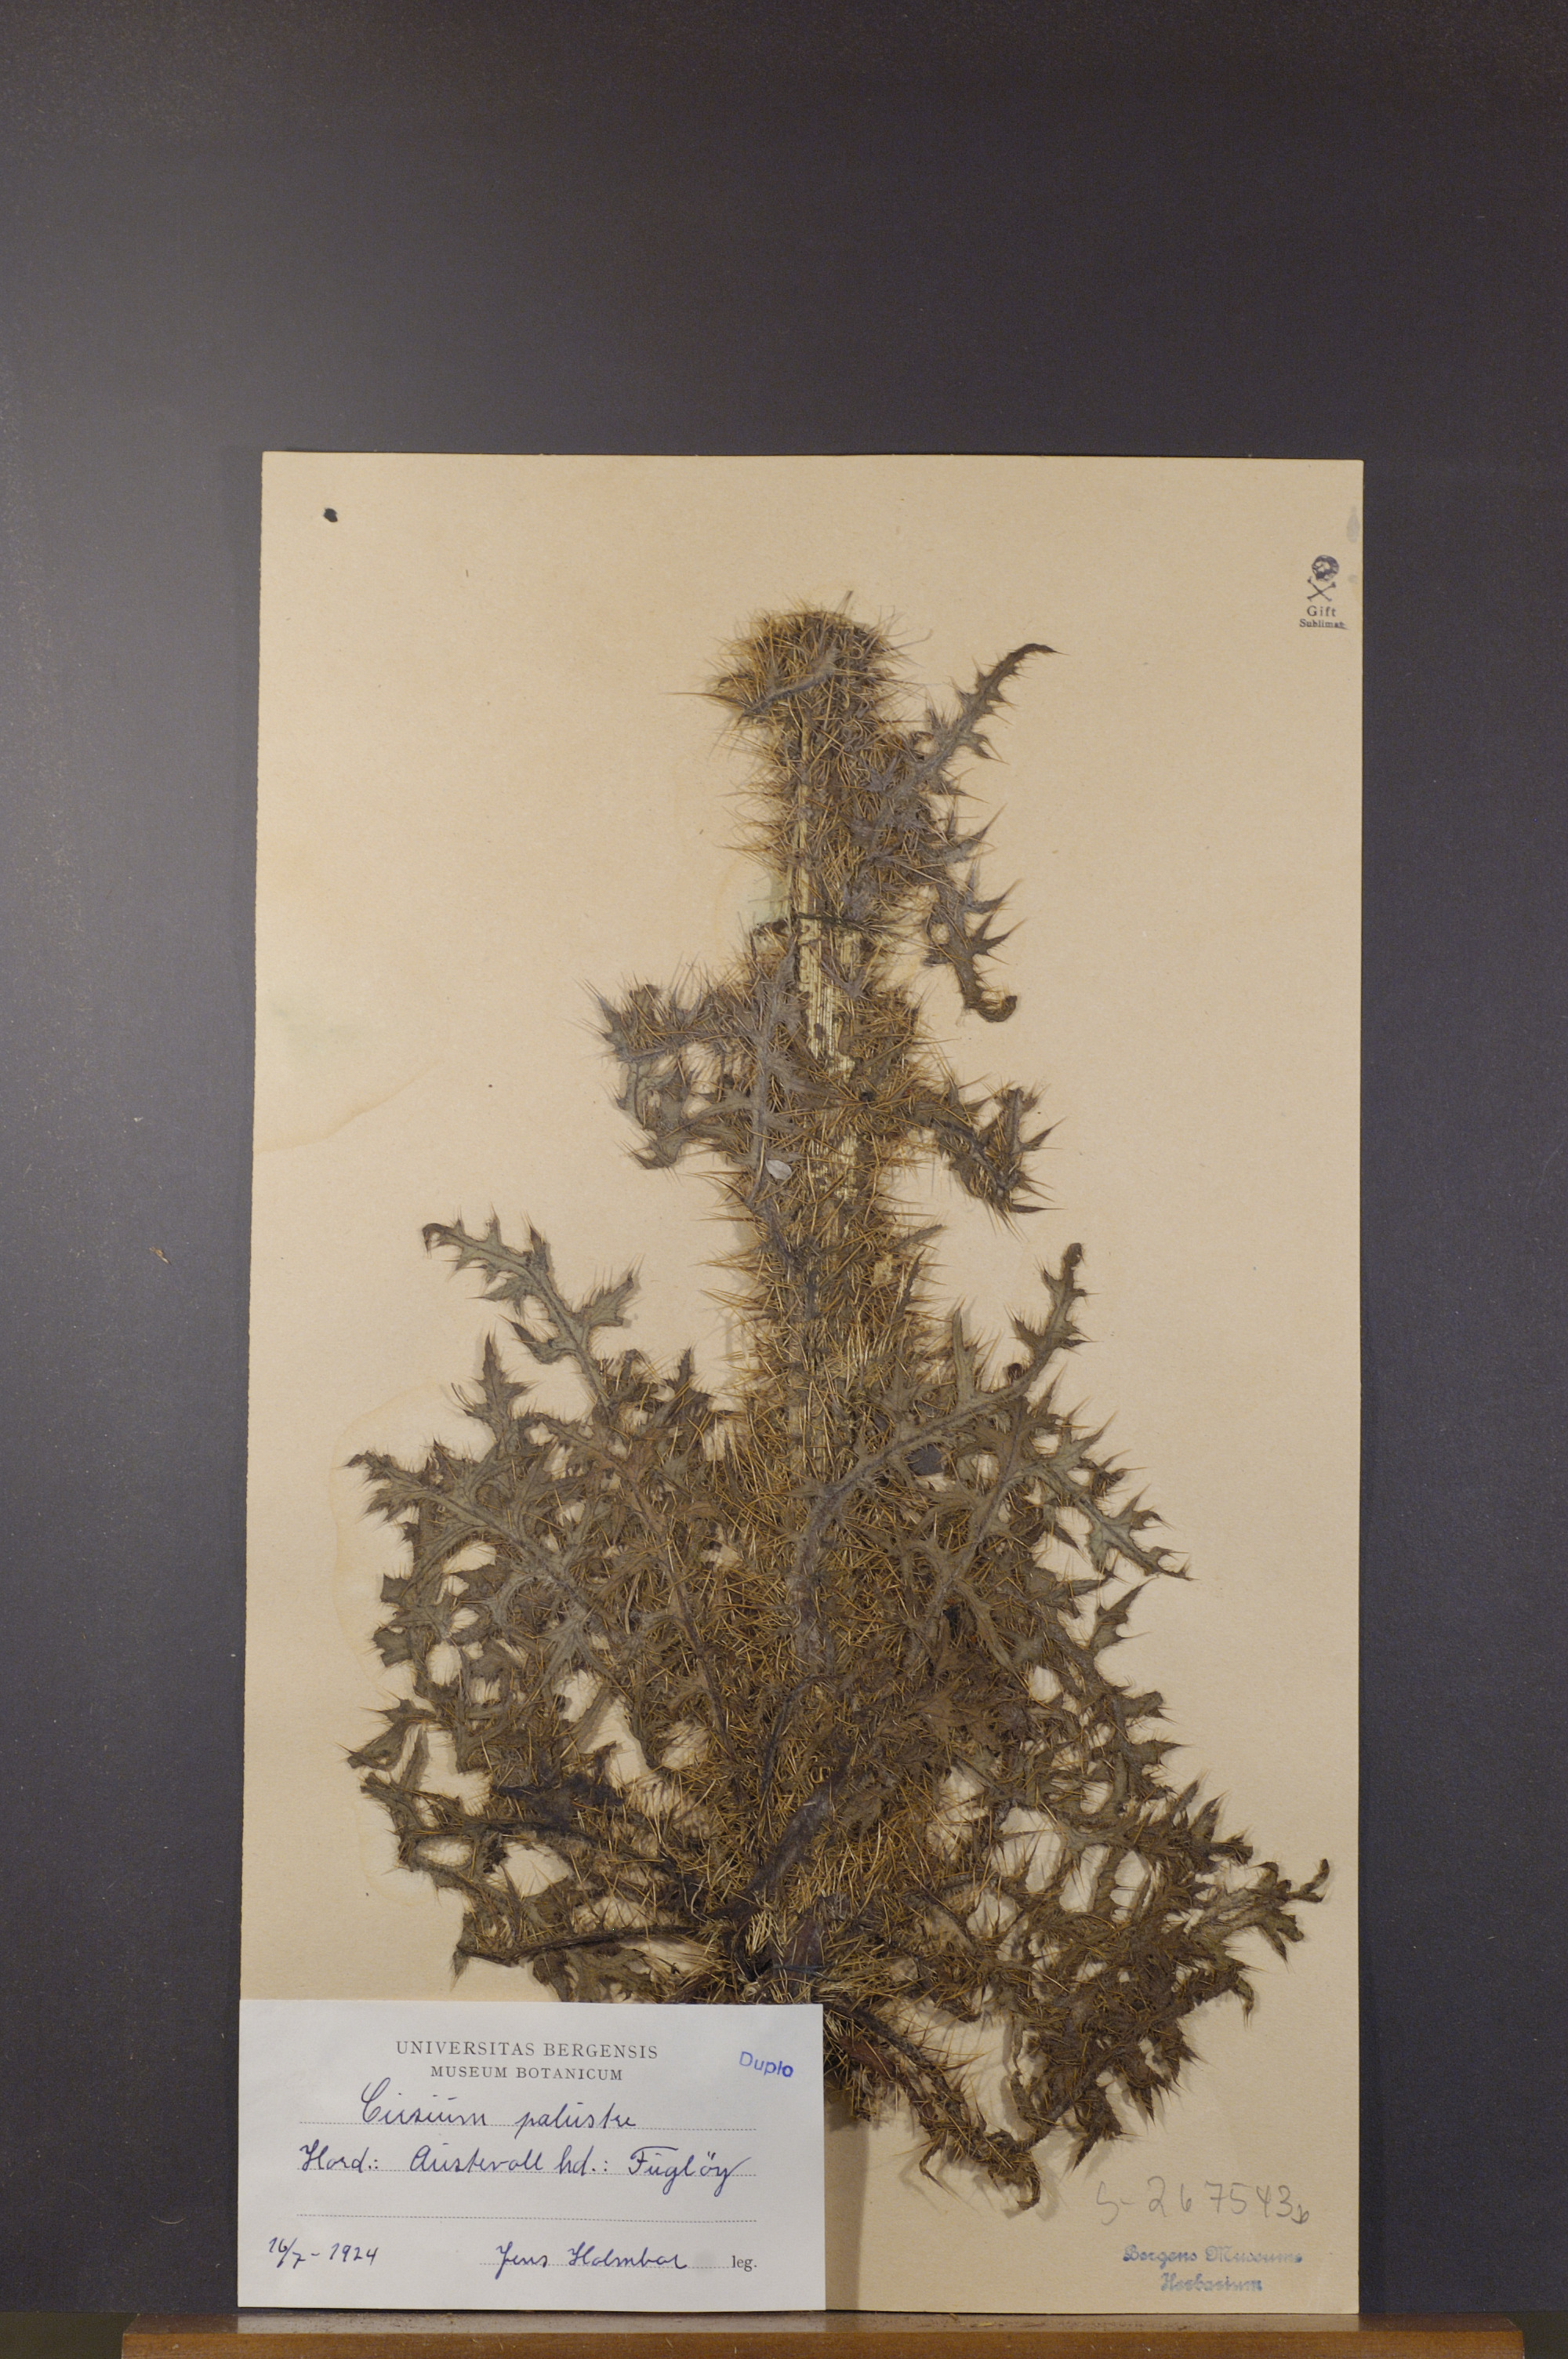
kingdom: Plantae
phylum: Tracheophyta
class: Magnoliopsida
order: Asterales
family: Asteraceae
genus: Cirsium
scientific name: Cirsium palustre
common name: Marsh thistle
